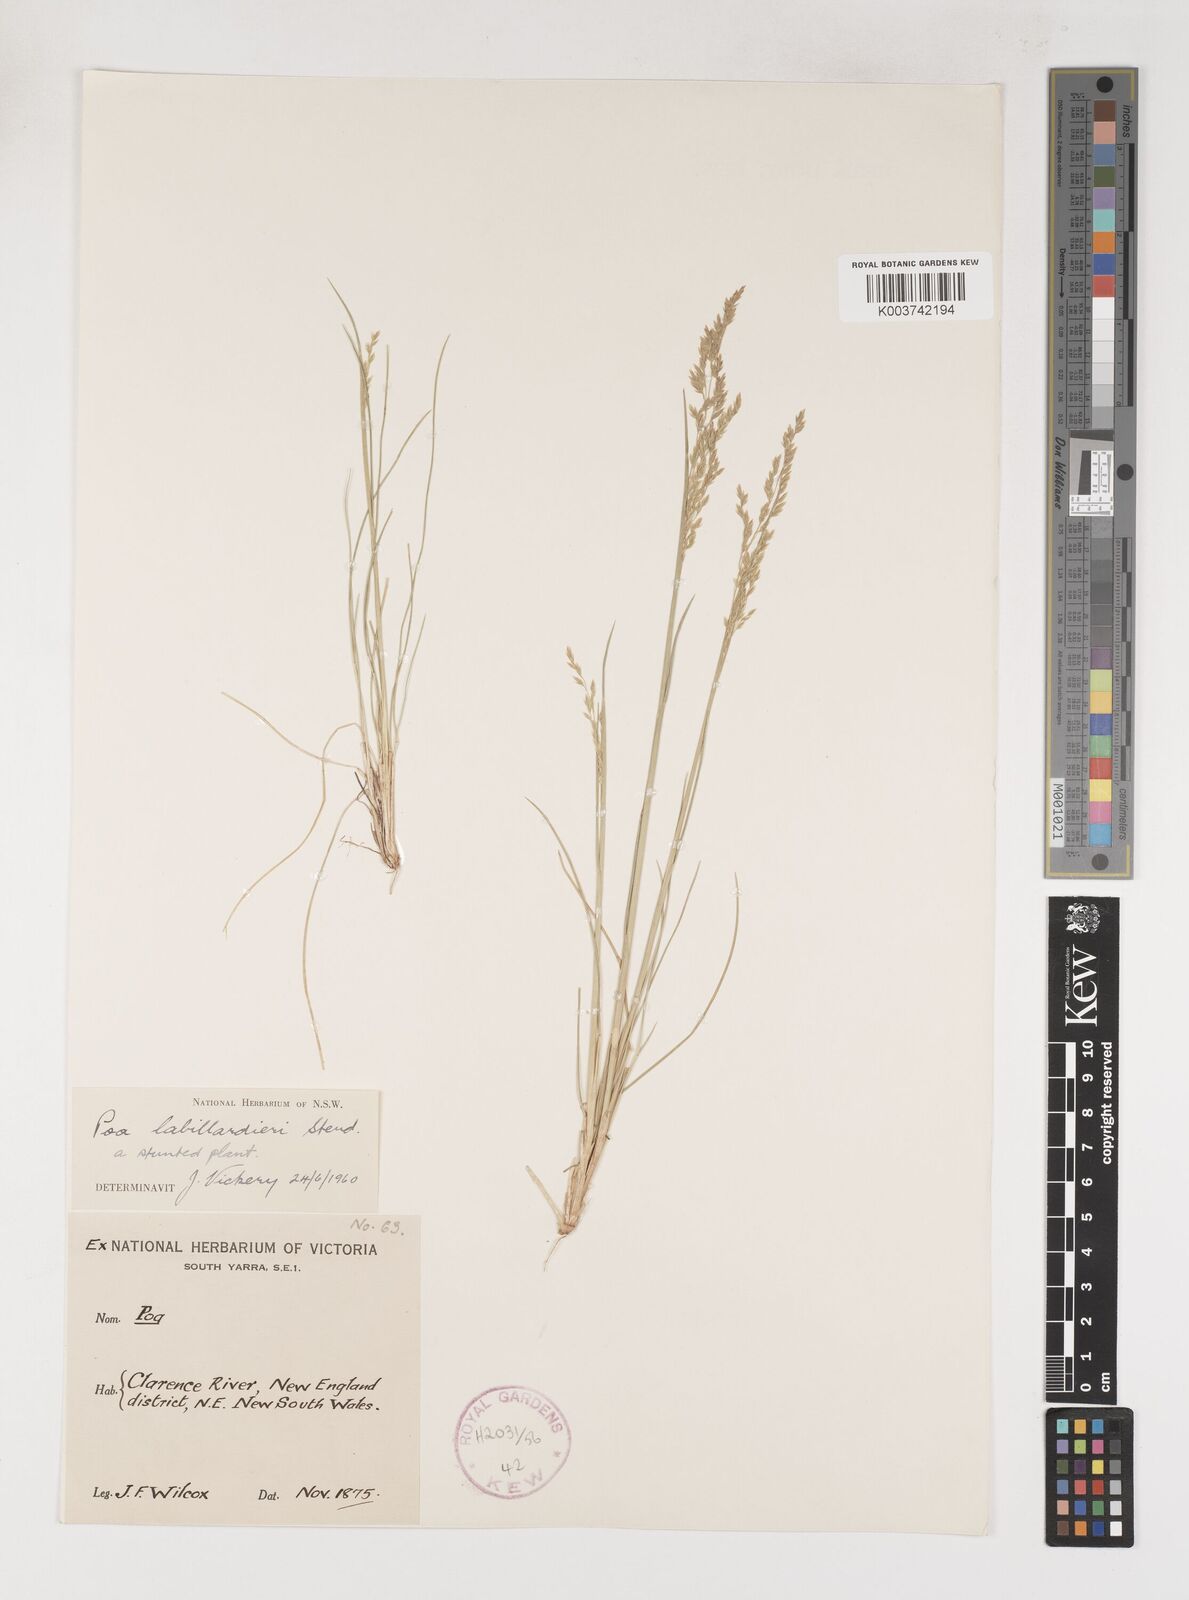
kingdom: Plantae
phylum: Tracheophyta
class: Liliopsida
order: Poales
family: Poaceae
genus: Poa
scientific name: Poa labillardierei
